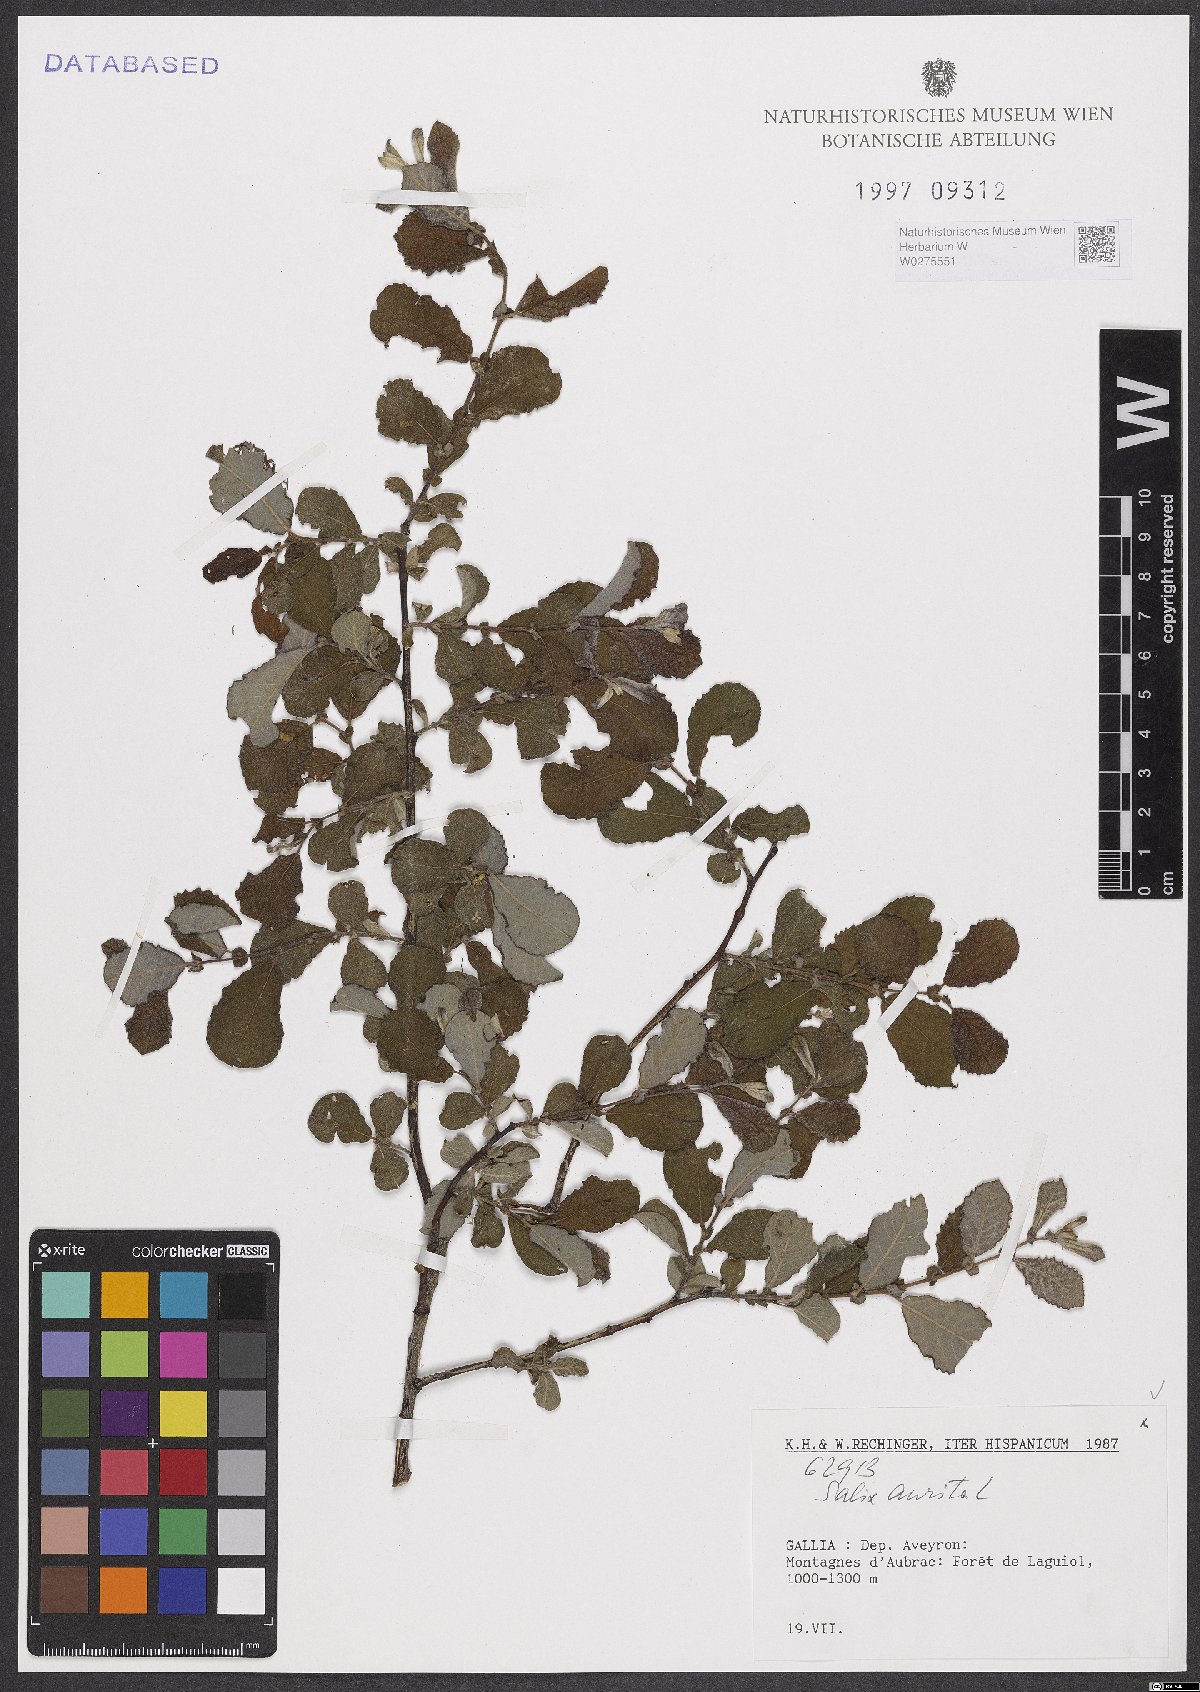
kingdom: Plantae
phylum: Tracheophyta
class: Magnoliopsida
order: Malpighiales
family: Salicaceae
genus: Salix
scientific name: Salix aurita
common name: Eared willow
